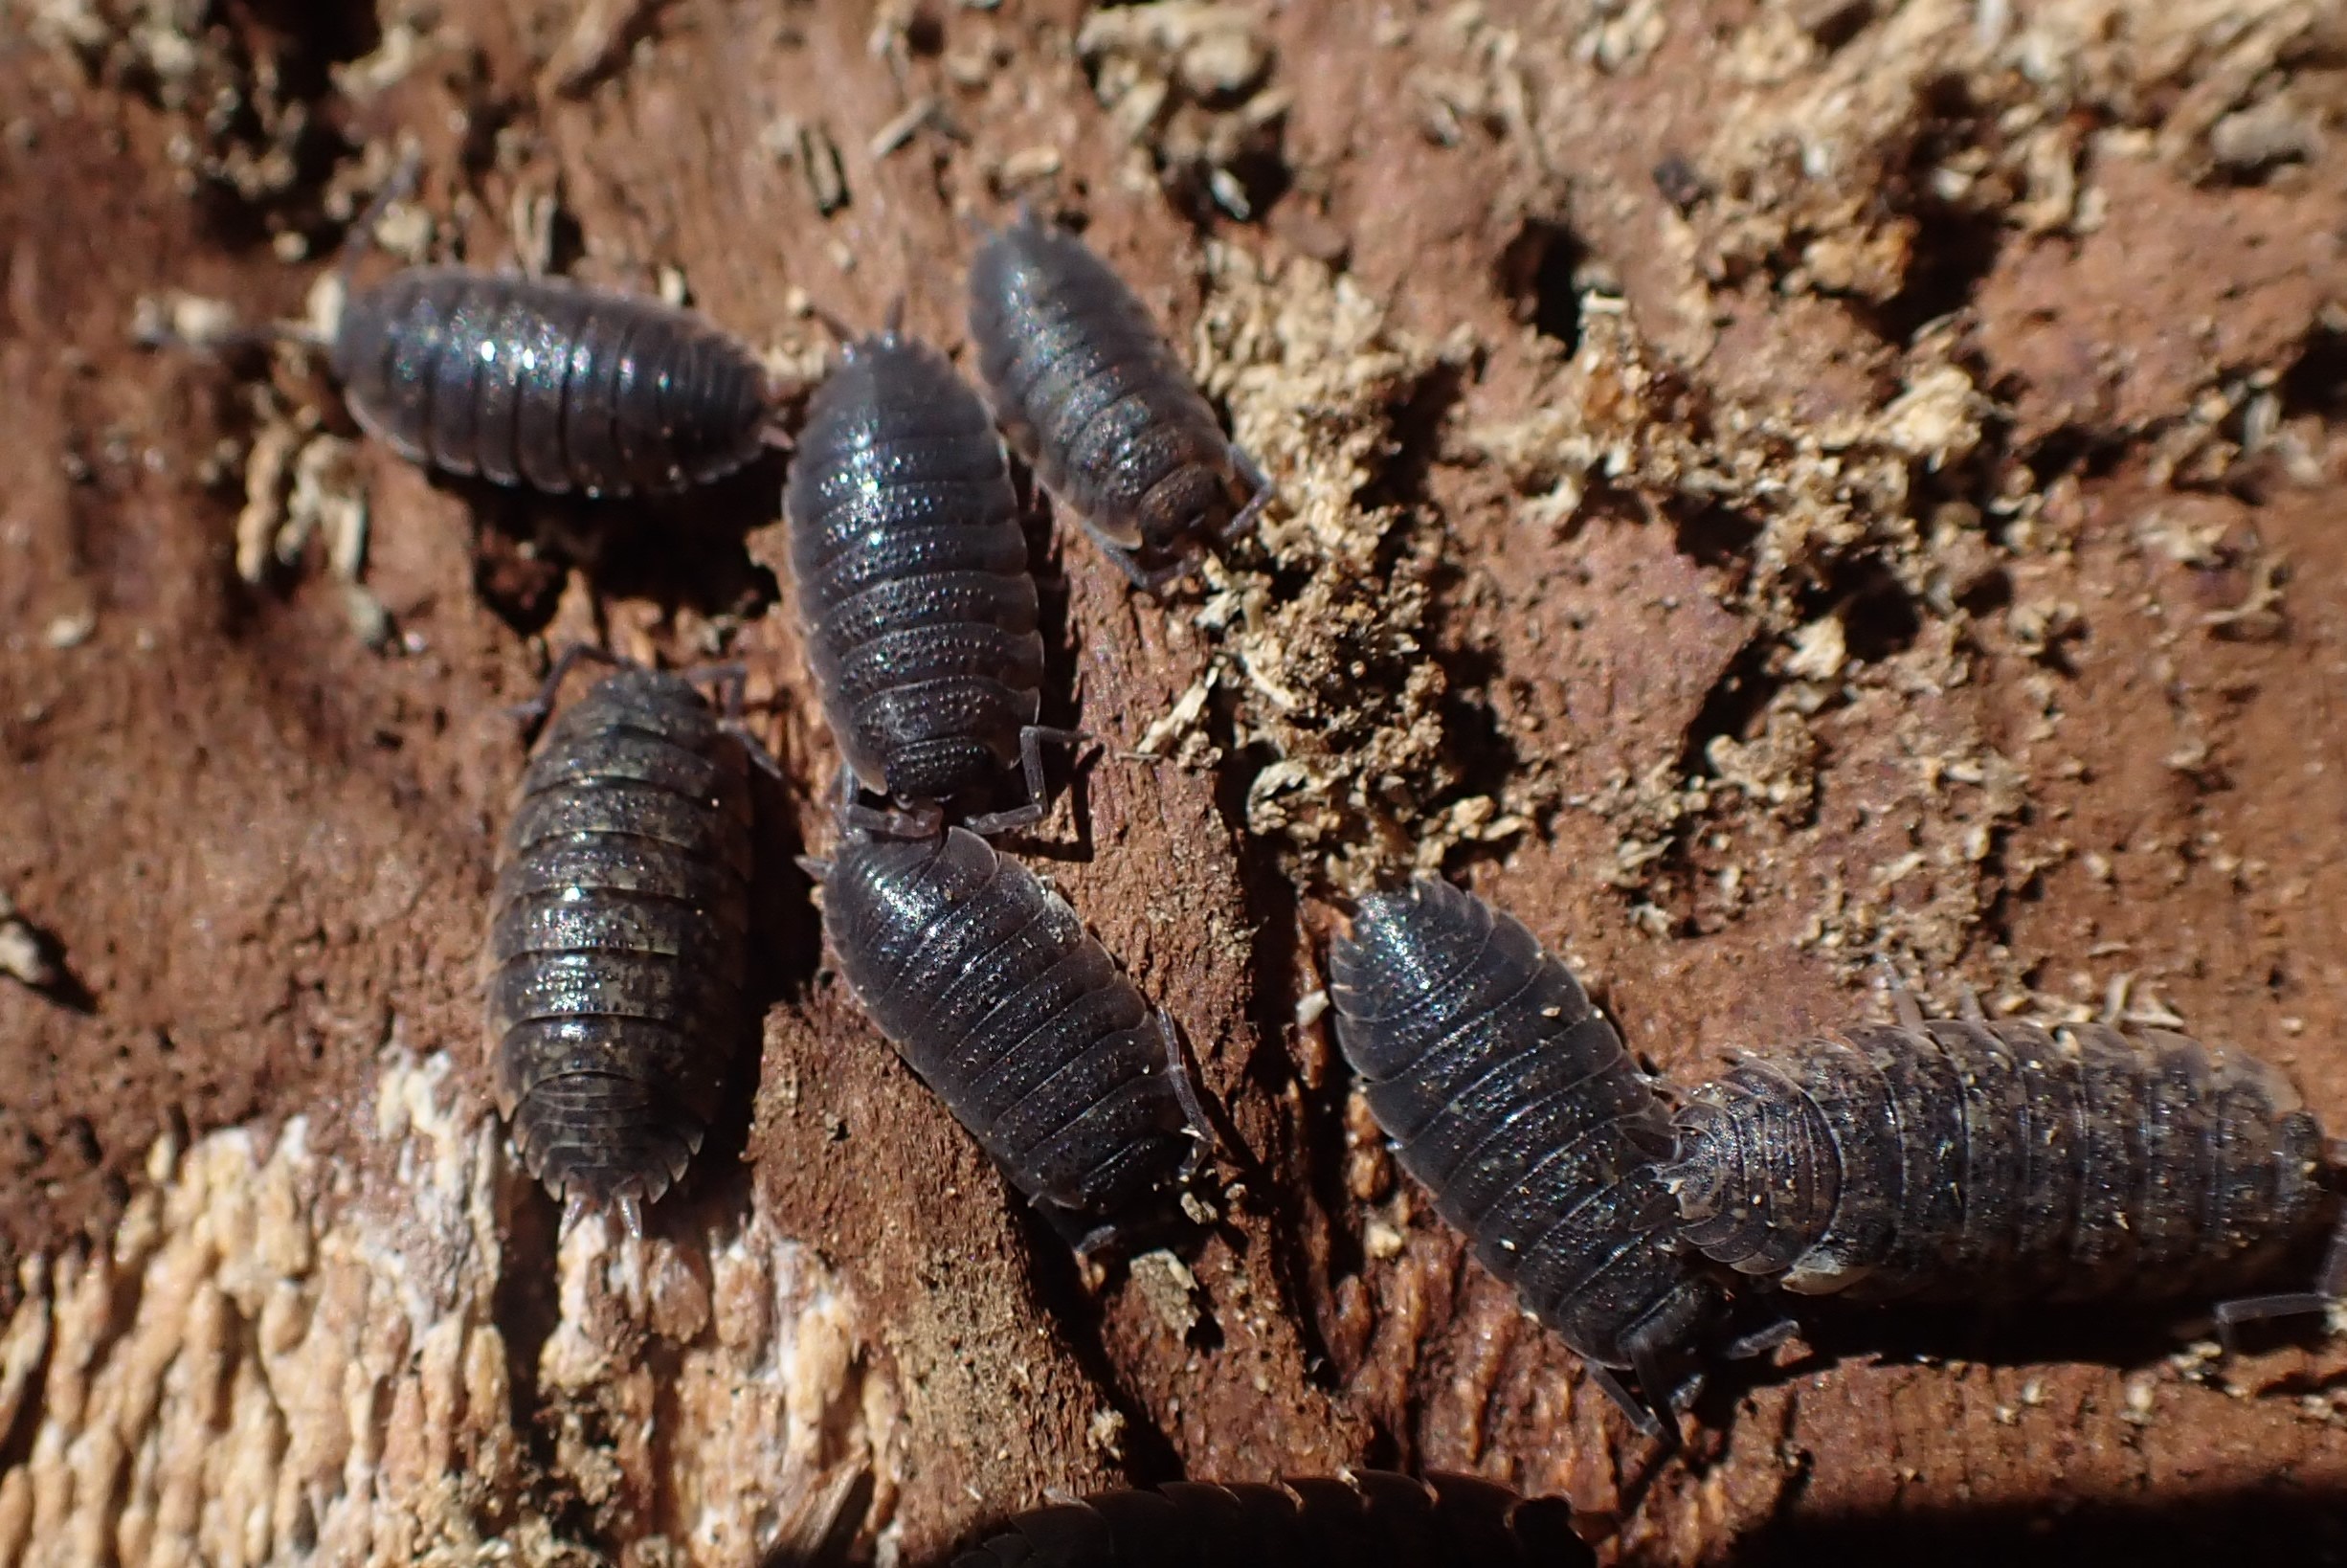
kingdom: Animalia
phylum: Arthropoda
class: Malacostraca
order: Isopoda
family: Porcellionidae
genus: Porcellio
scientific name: Porcellio scaber
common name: Grå bænkebider
